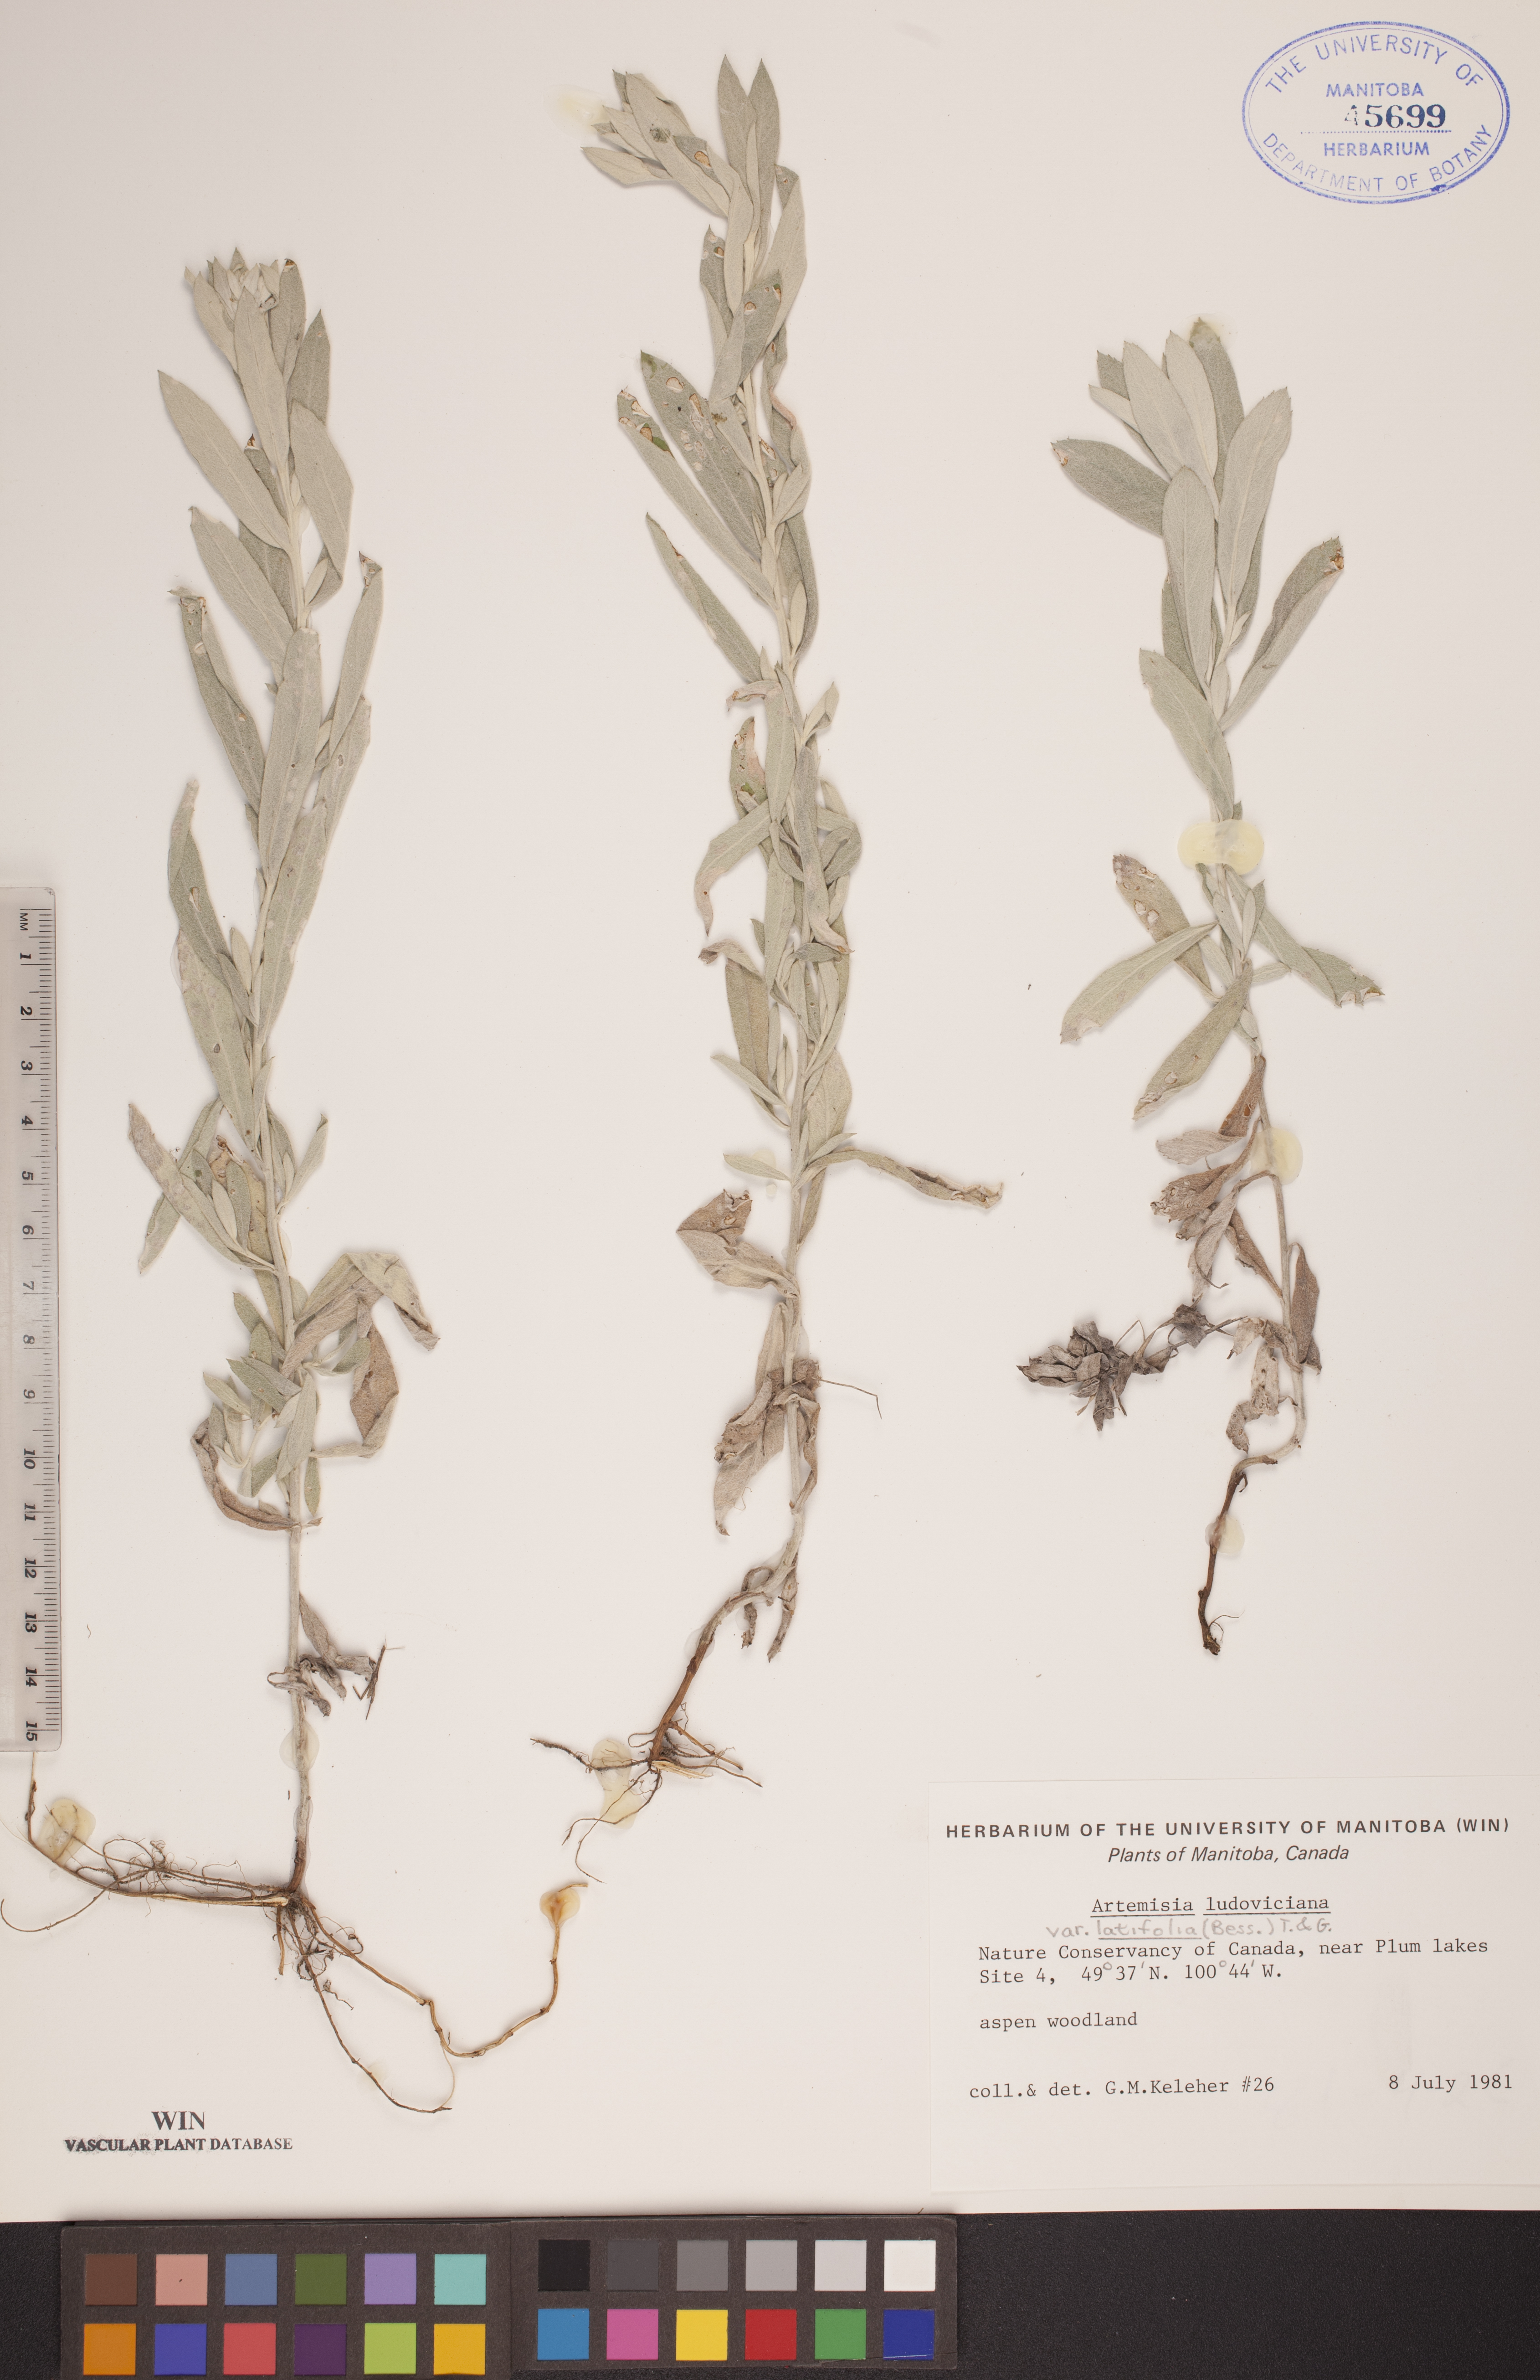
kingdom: Plantae
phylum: Tracheophyta
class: Magnoliopsida
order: Asterales
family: Asteraceae
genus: Artemisia
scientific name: Artemisia ludoviciana
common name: Western mugwort
